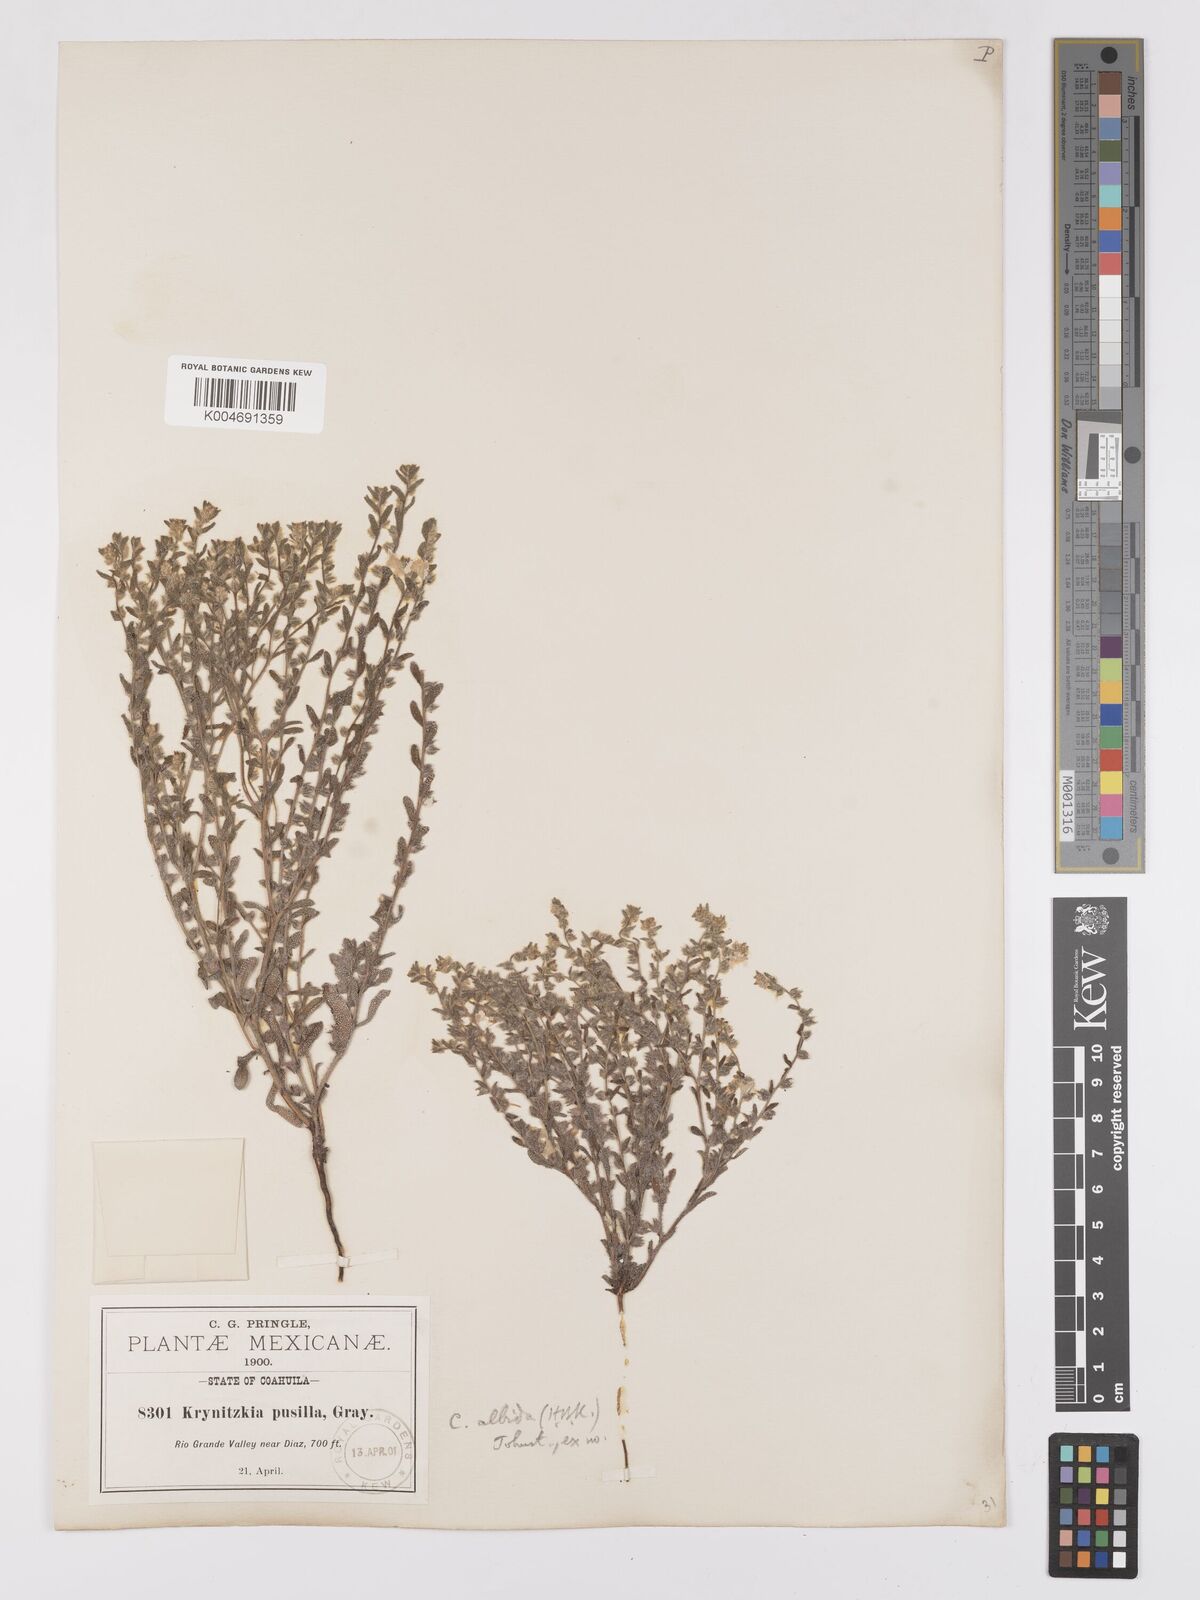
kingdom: Plantae
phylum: Tracheophyta
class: Magnoliopsida
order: Boraginales
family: Boraginaceae
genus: Johnstonella
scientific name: Johnstonella albida
